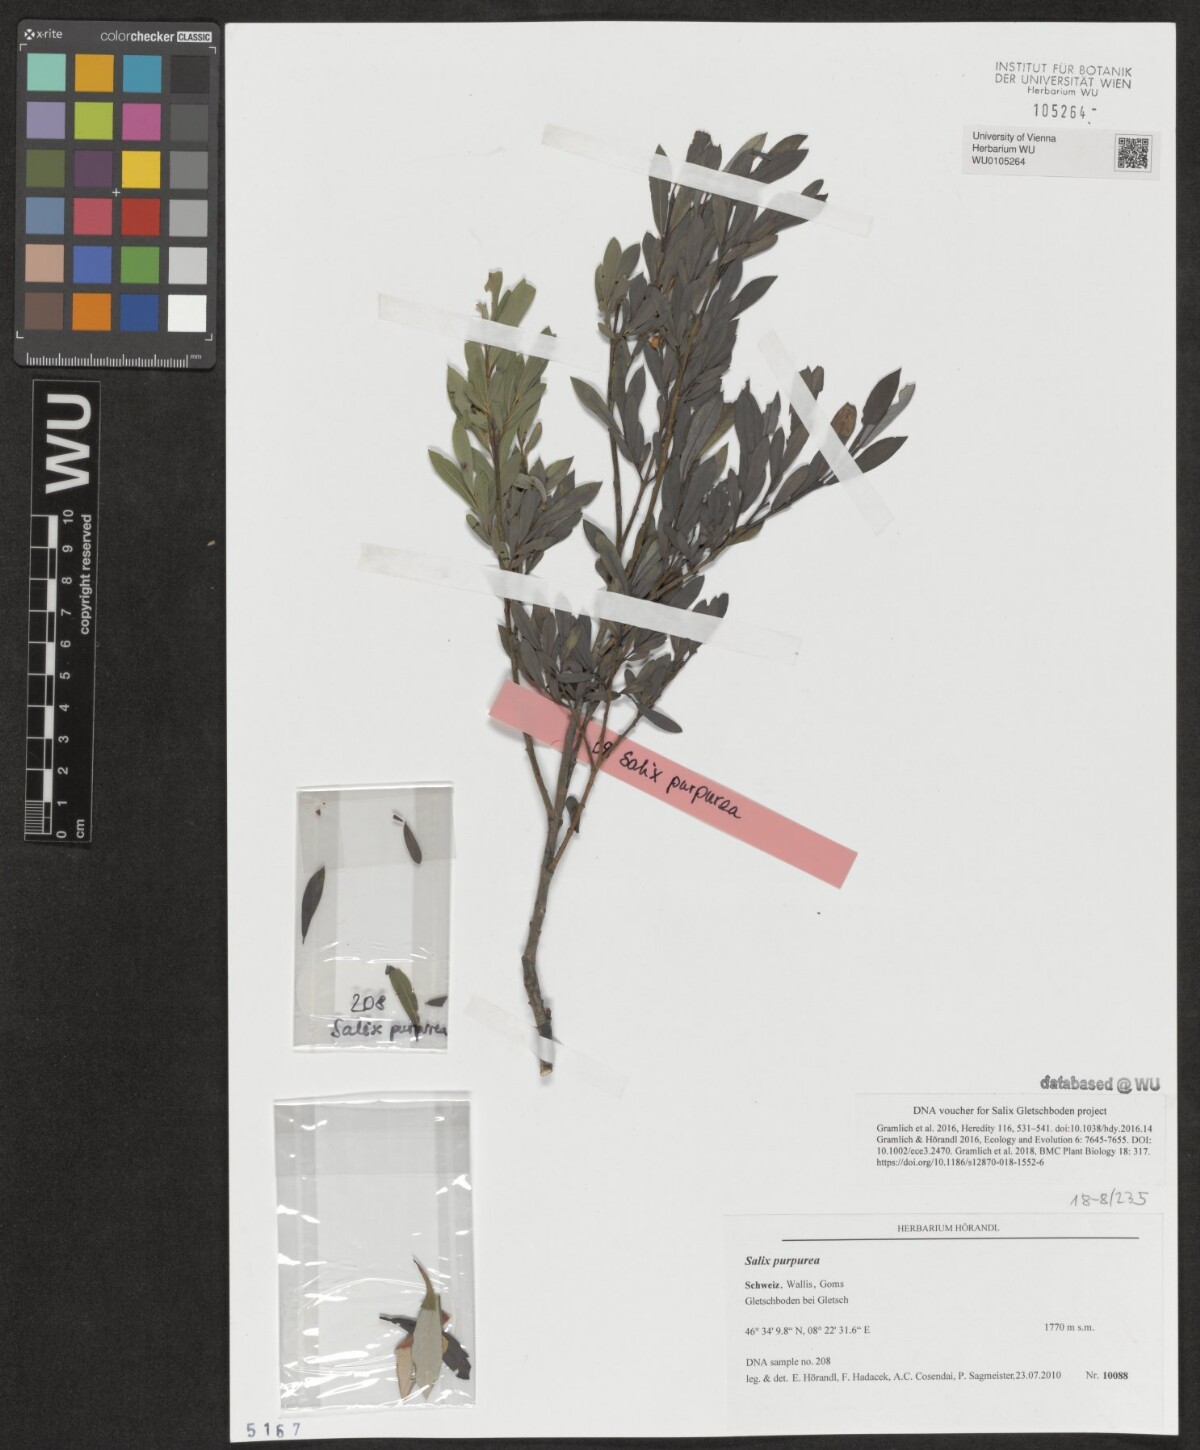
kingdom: Plantae
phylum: Tracheophyta
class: Magnoliopsida
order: Malpighiales
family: Salicaceae
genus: Salix
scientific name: Salix purpurea
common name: Purple willow
